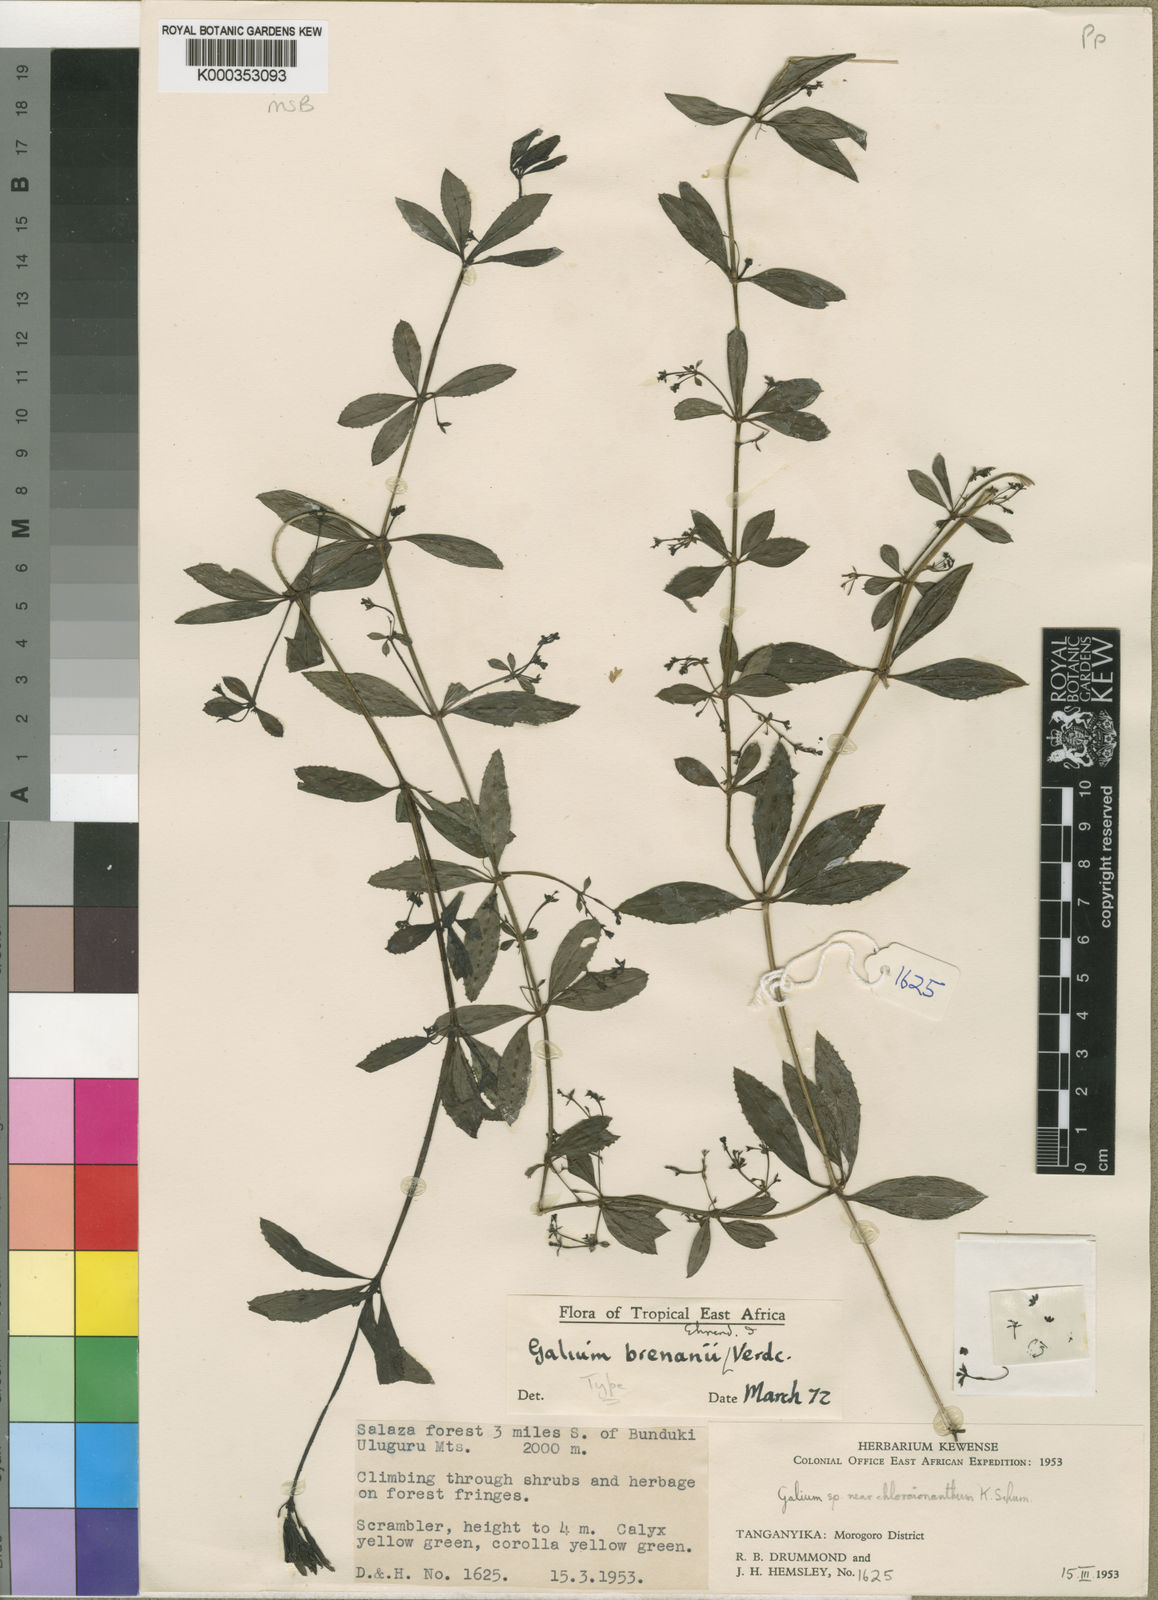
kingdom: Plantae
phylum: Tracheophyta
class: Magnoliopsida
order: Gentianales
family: Rubiaceae
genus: Galium
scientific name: Galium brenanii
